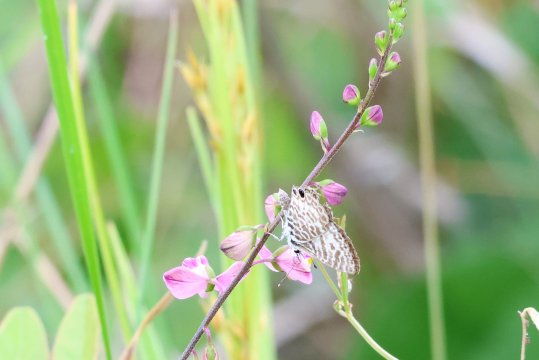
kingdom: Animalia
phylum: Arthropoda
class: Insecta
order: Lepidoptera
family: Lycaenidae
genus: Leptotes
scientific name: Leptotes cassius
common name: Cassius Blue
